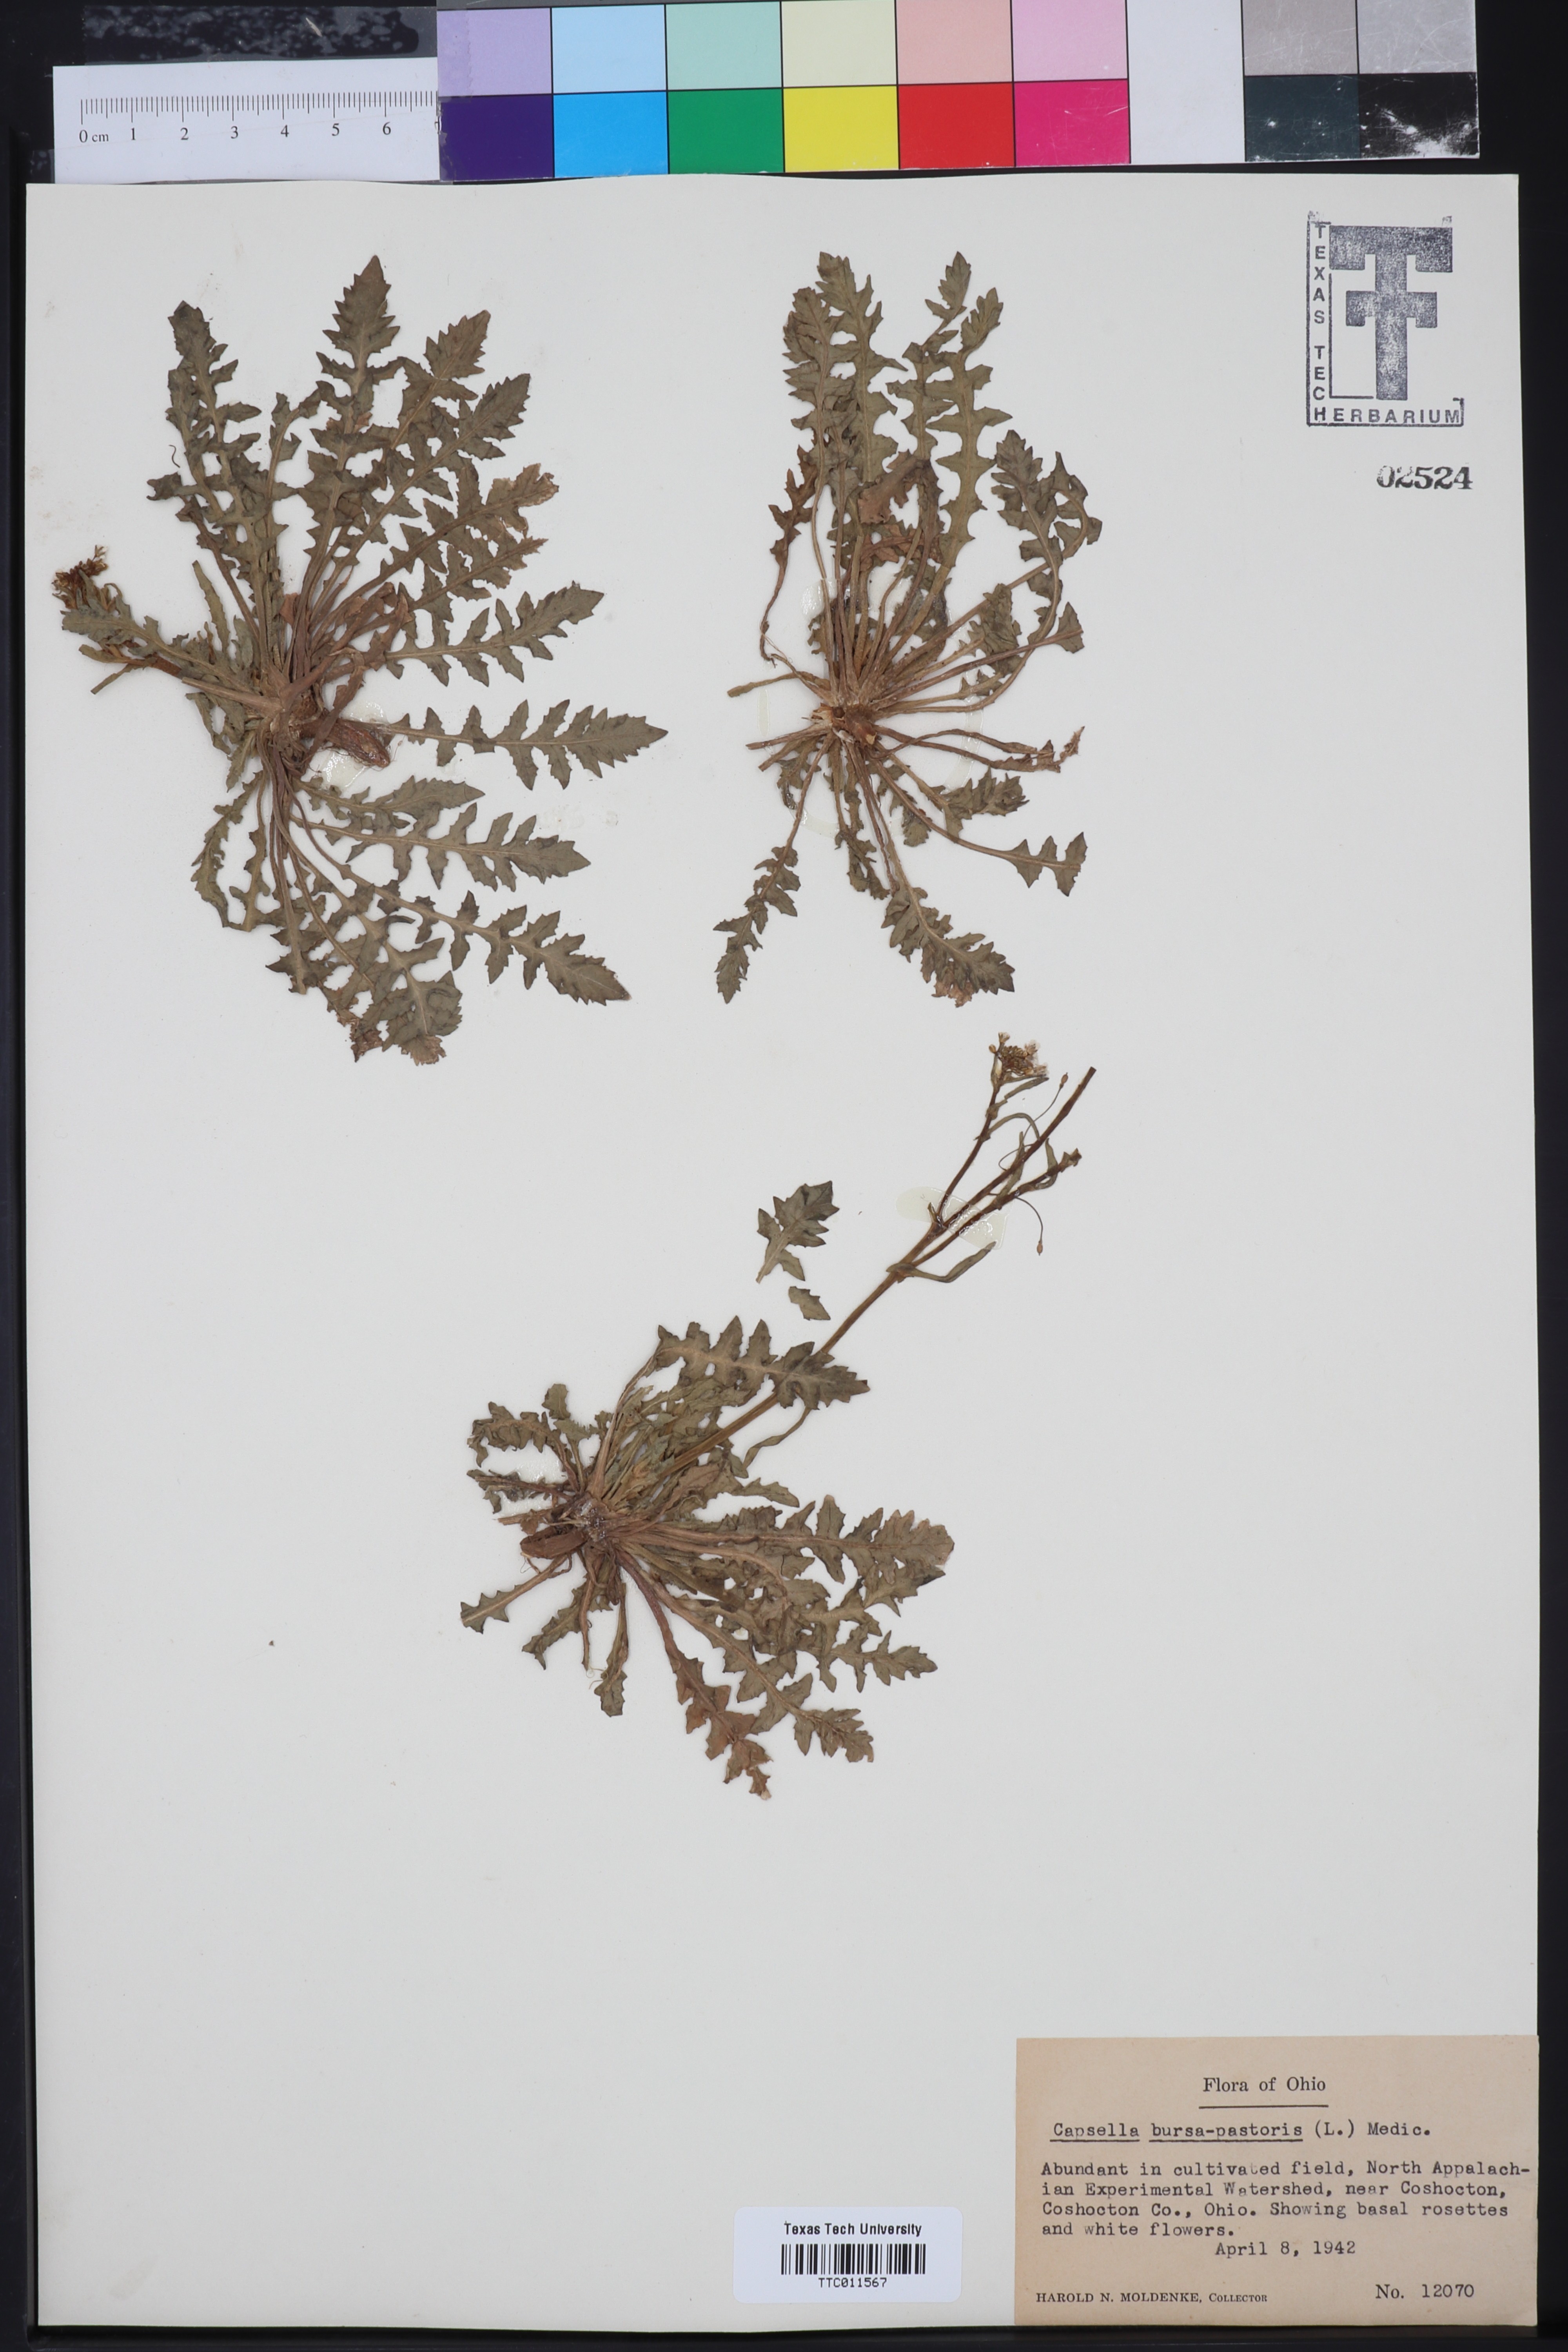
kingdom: Plantae
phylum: Tracheophyta
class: Magnoliopsida
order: Brassicales
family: Brassicaceae
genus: Capsella
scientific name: Capsella bursa-pastoris
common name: Shepherd's purse
